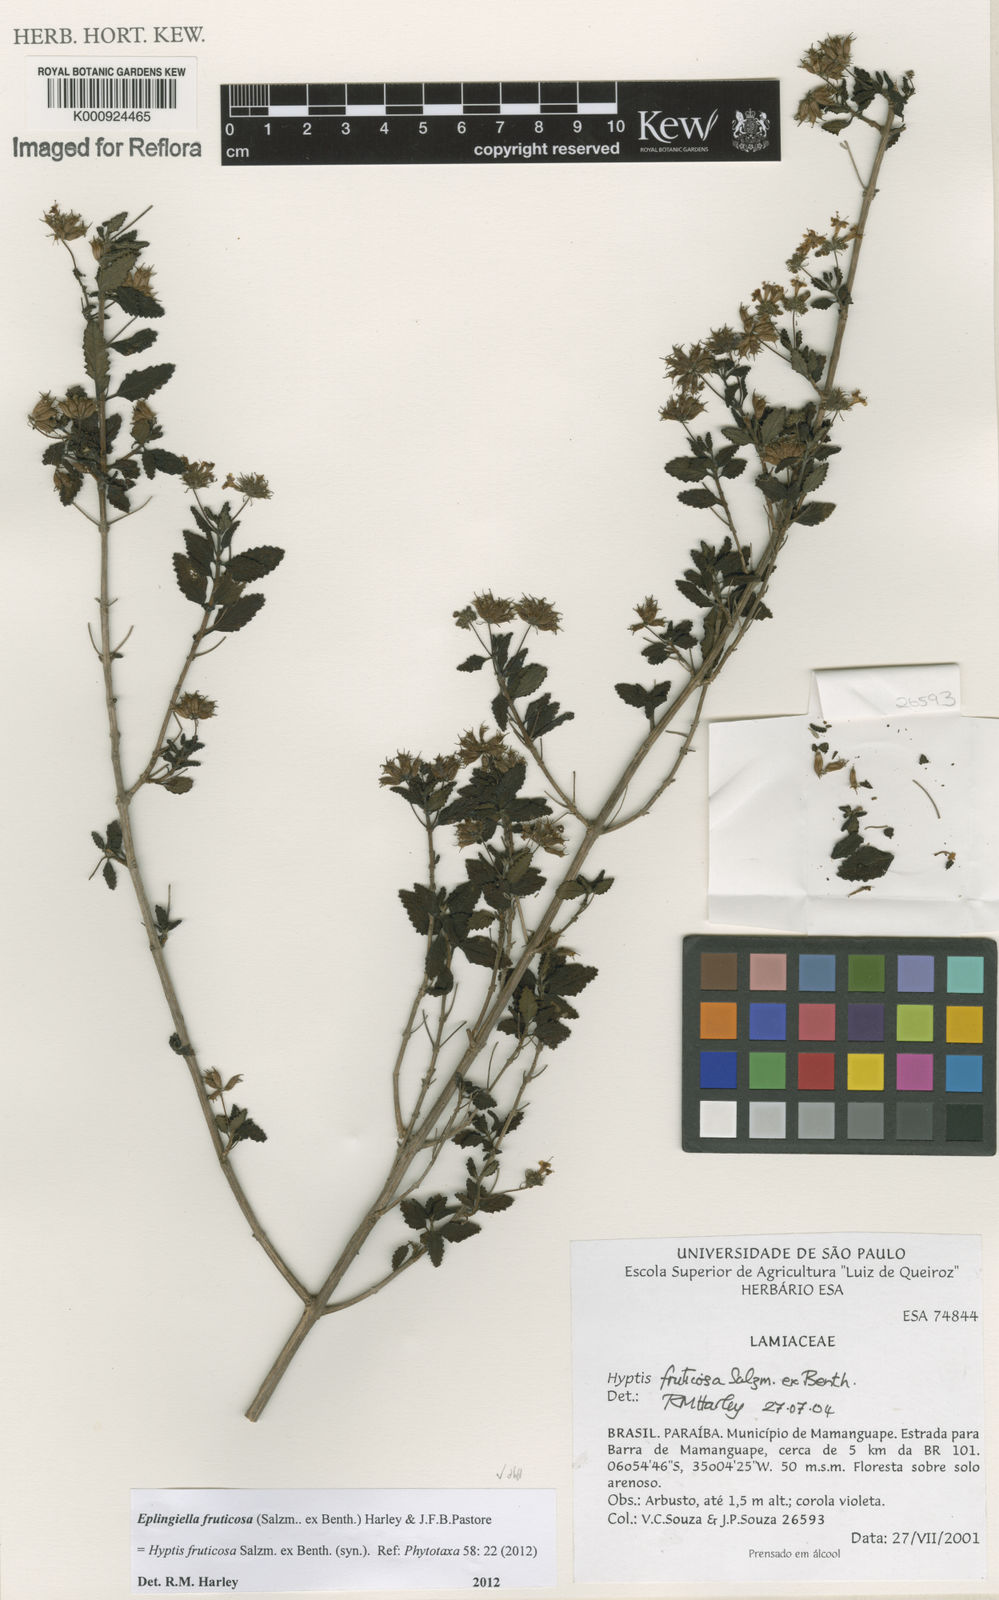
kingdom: Plantae
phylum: Tracheophyta
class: Magnoliopsida
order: Lamiales
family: Lamiaceae
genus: Eplingiella
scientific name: Eplingiella fruticosa
